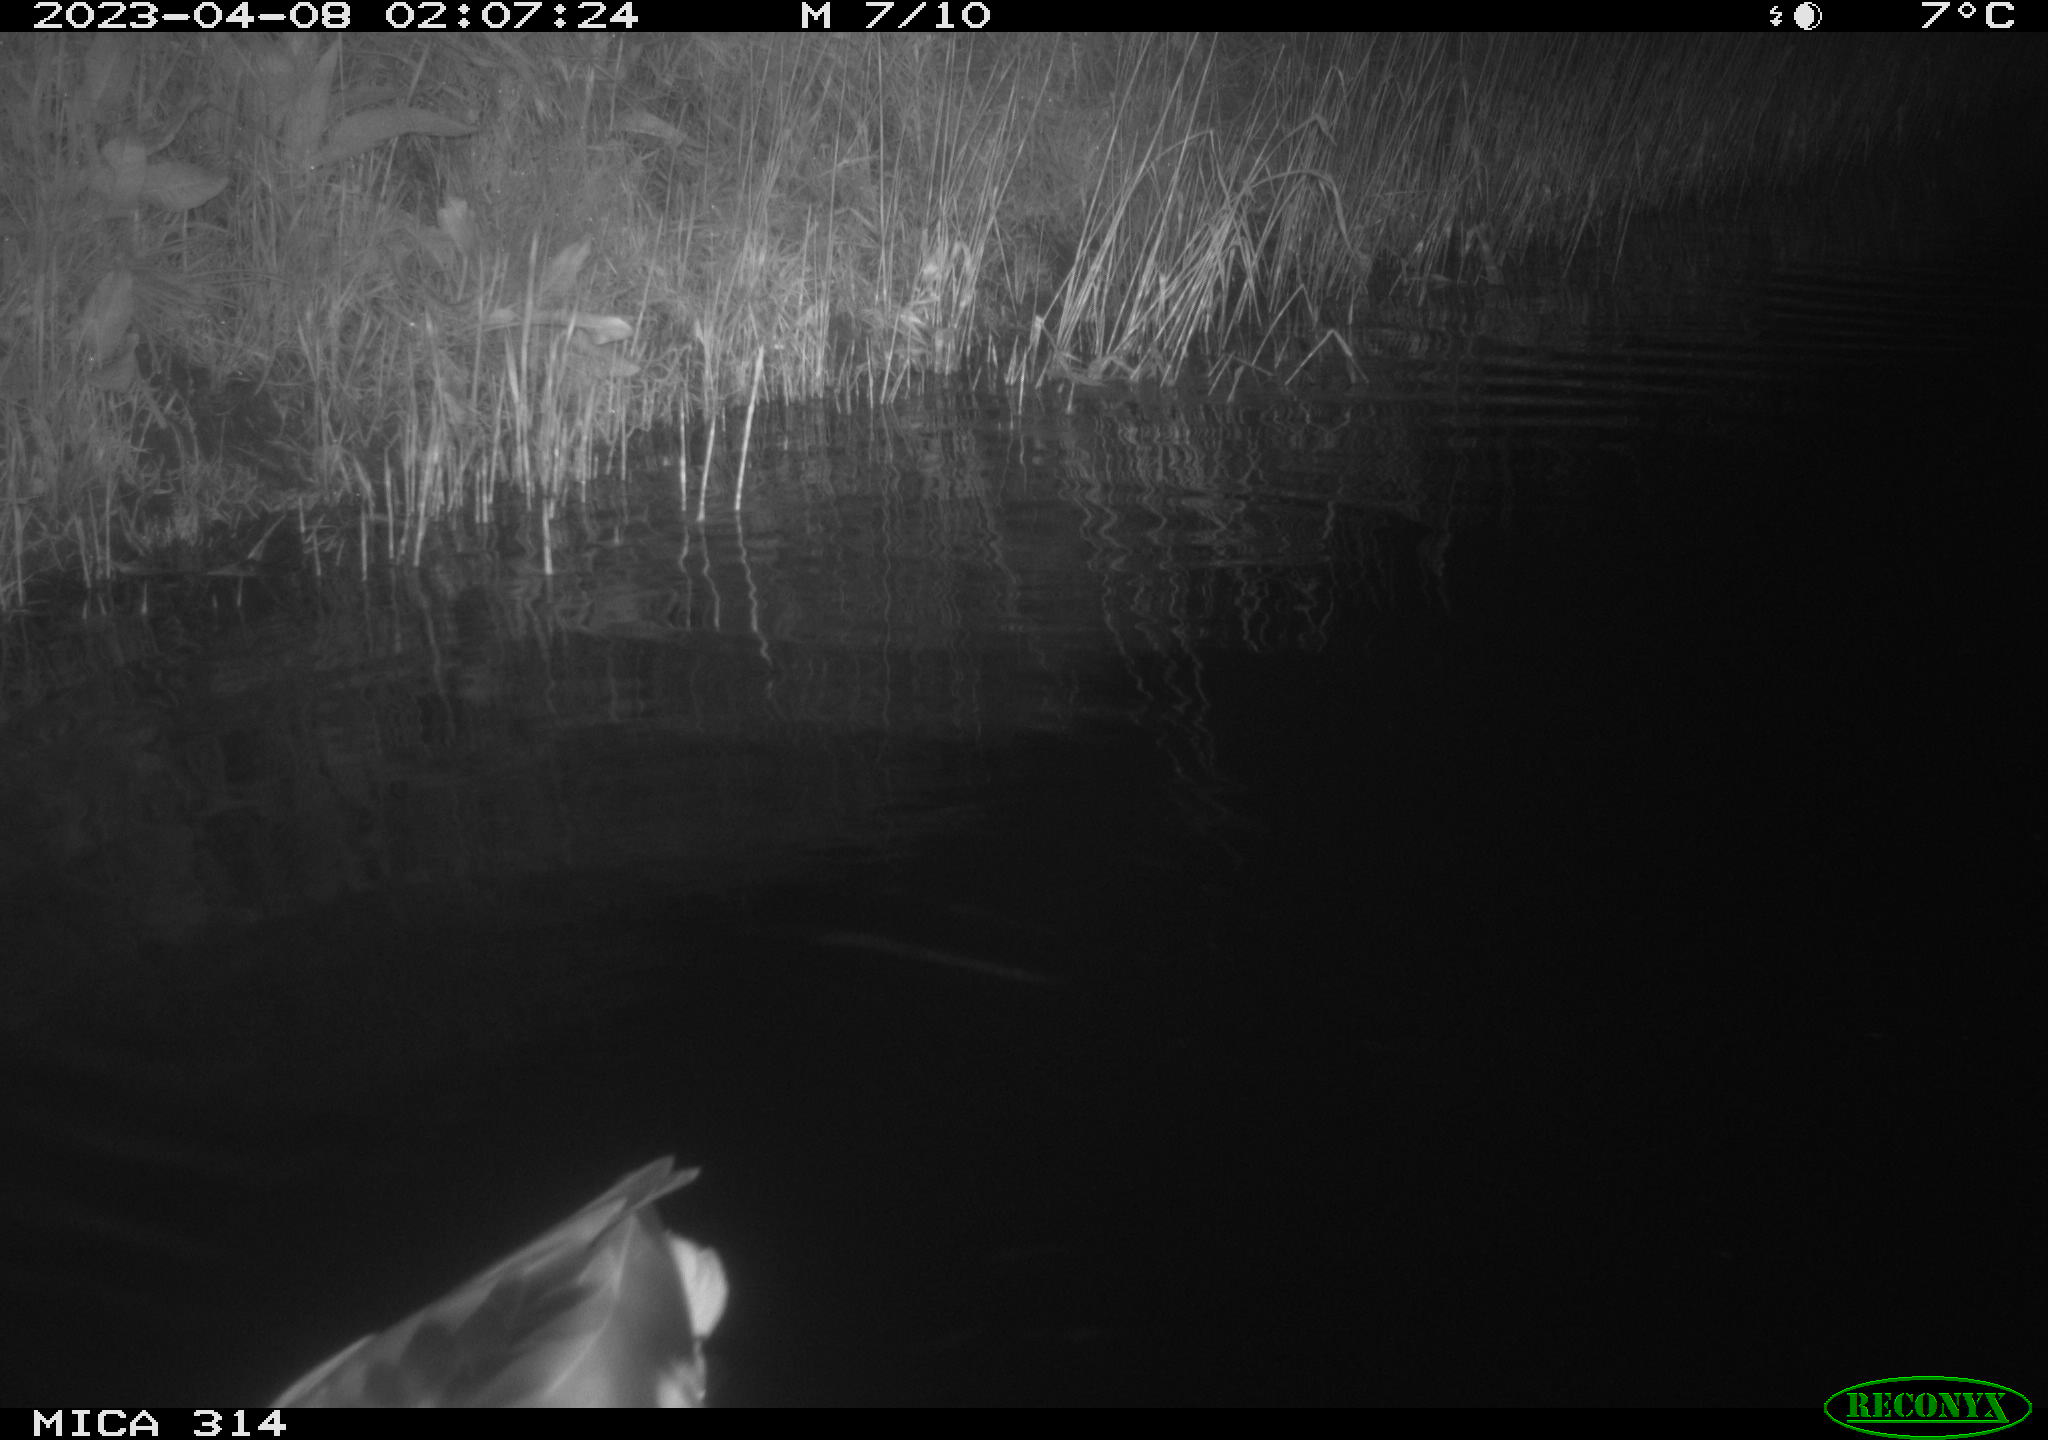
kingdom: Animalia
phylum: Chordata
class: Aves
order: Anseriformes
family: Anatidae
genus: Anas
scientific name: Anas
